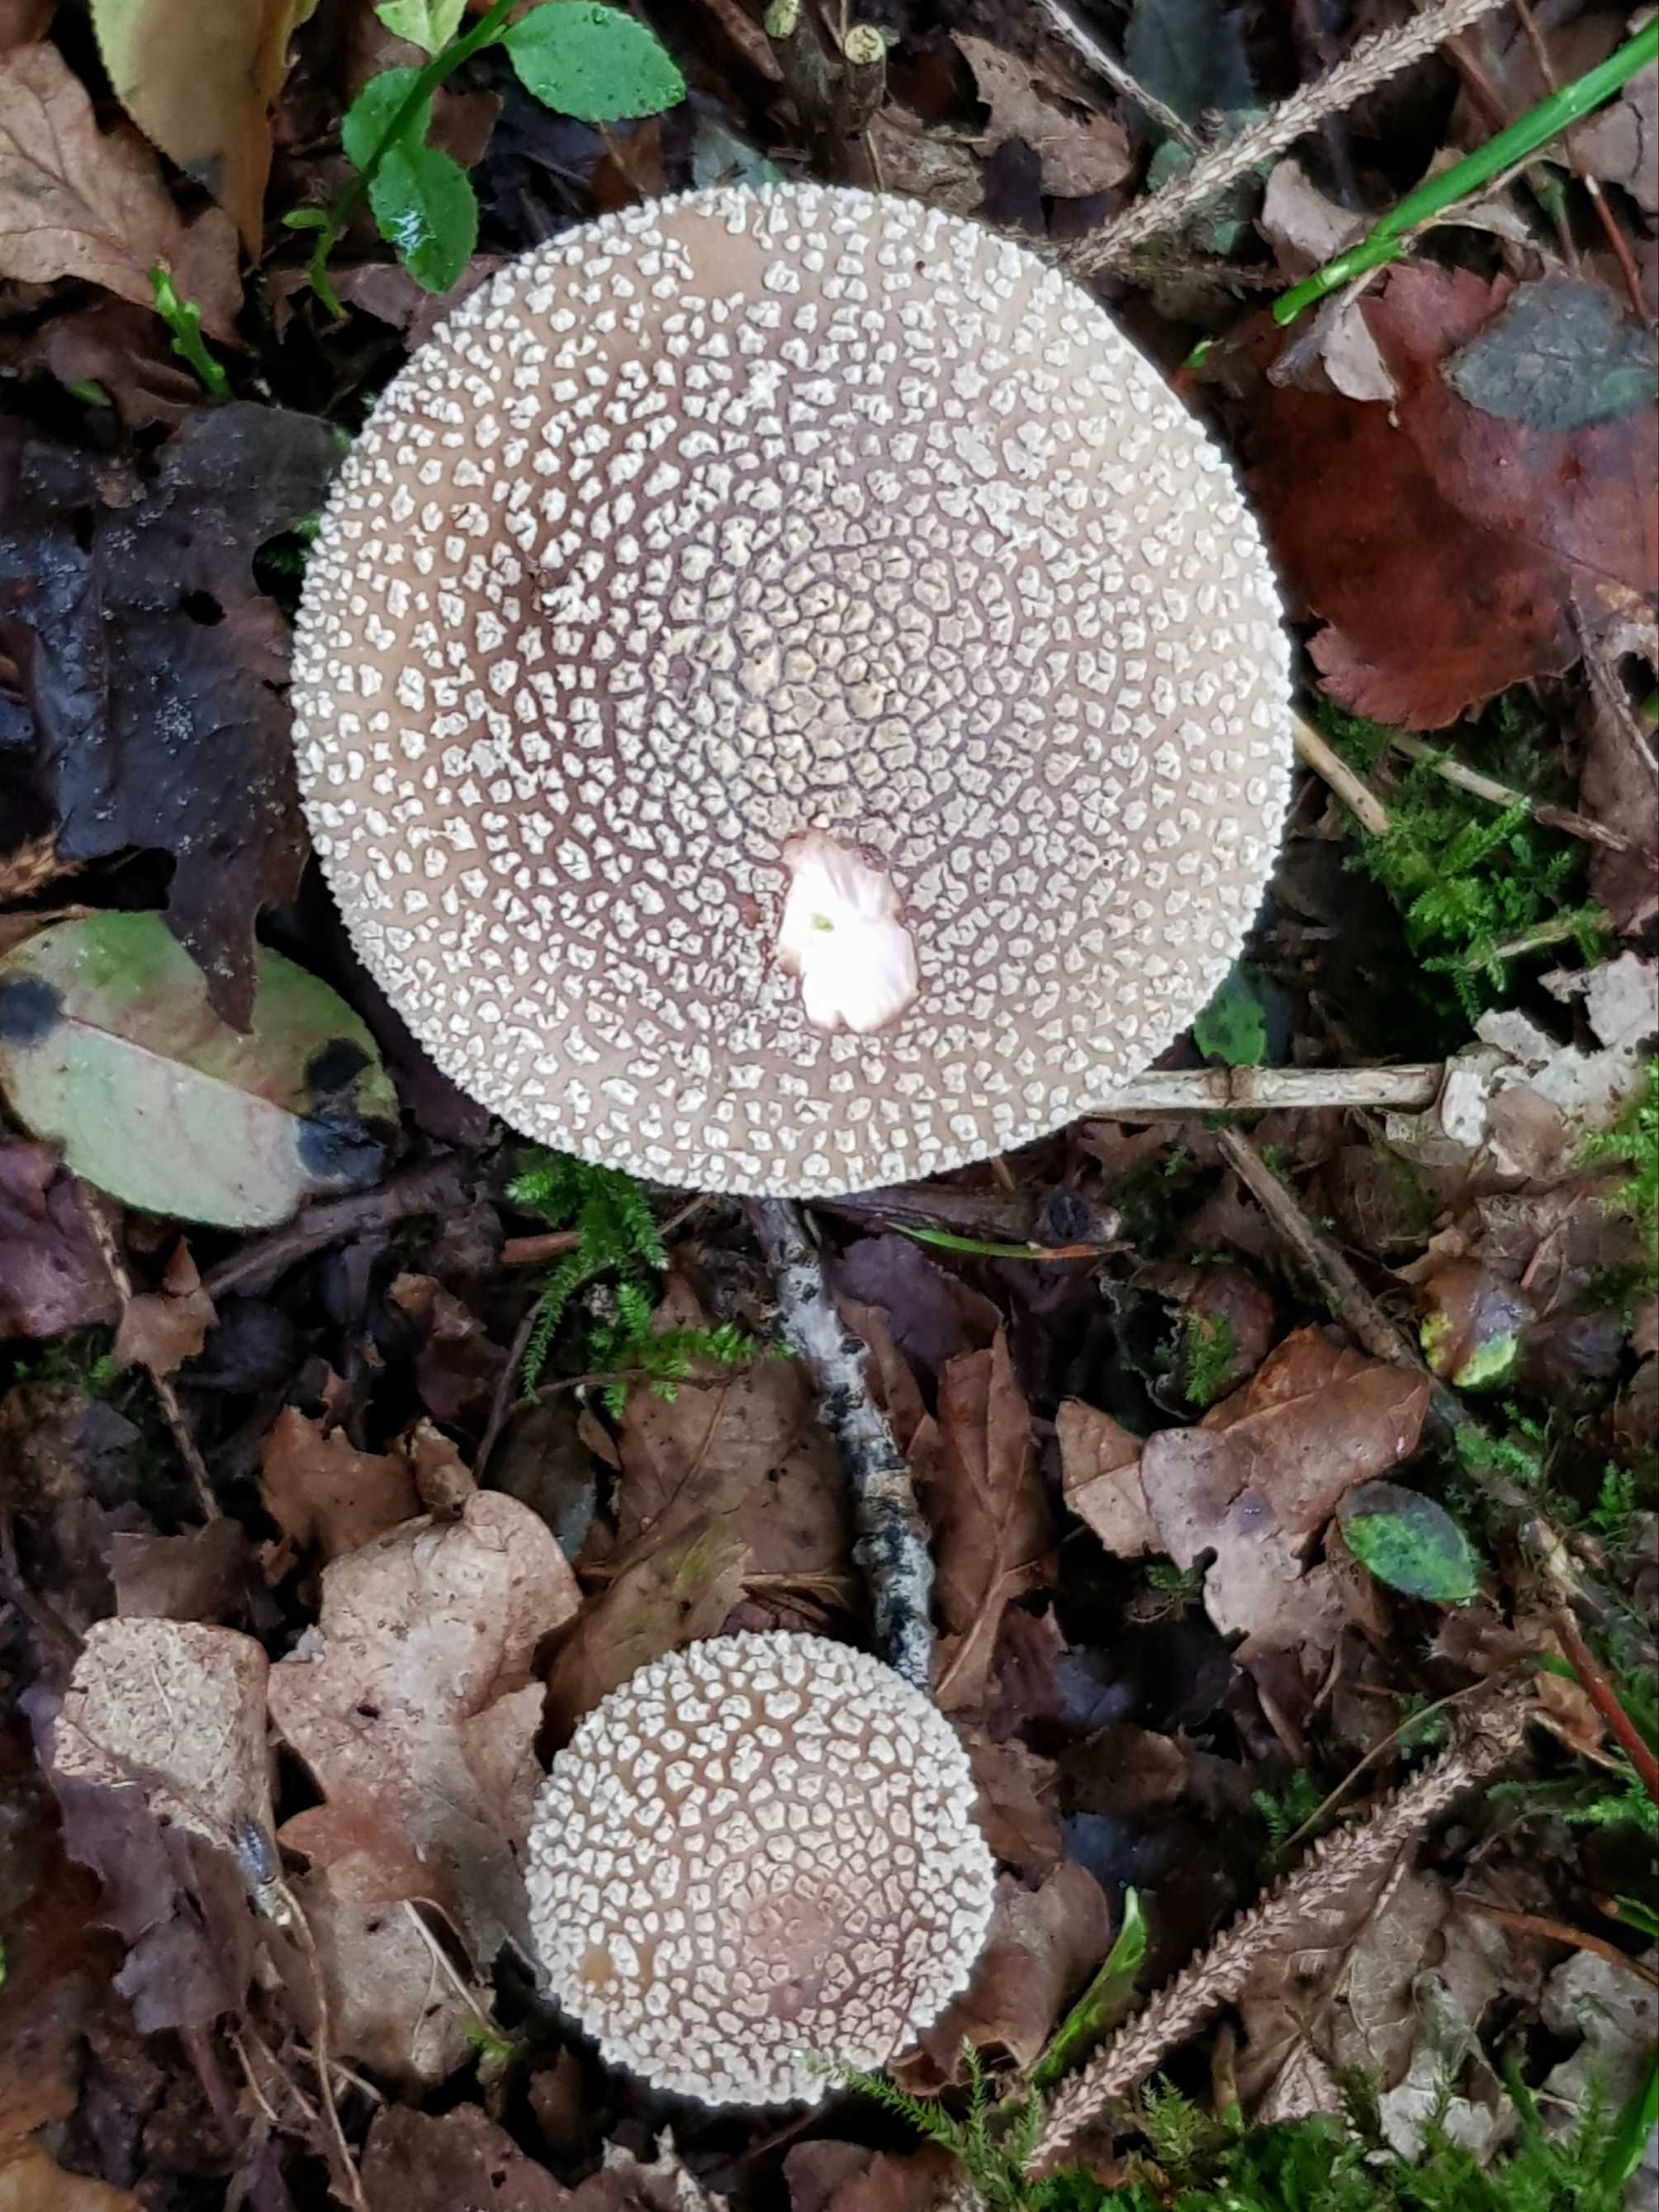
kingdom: Fungi
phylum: Basidiomycota
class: Agaricomycetes
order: Agaricales
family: Amanitaceae
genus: Amanita
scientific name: Amanita
